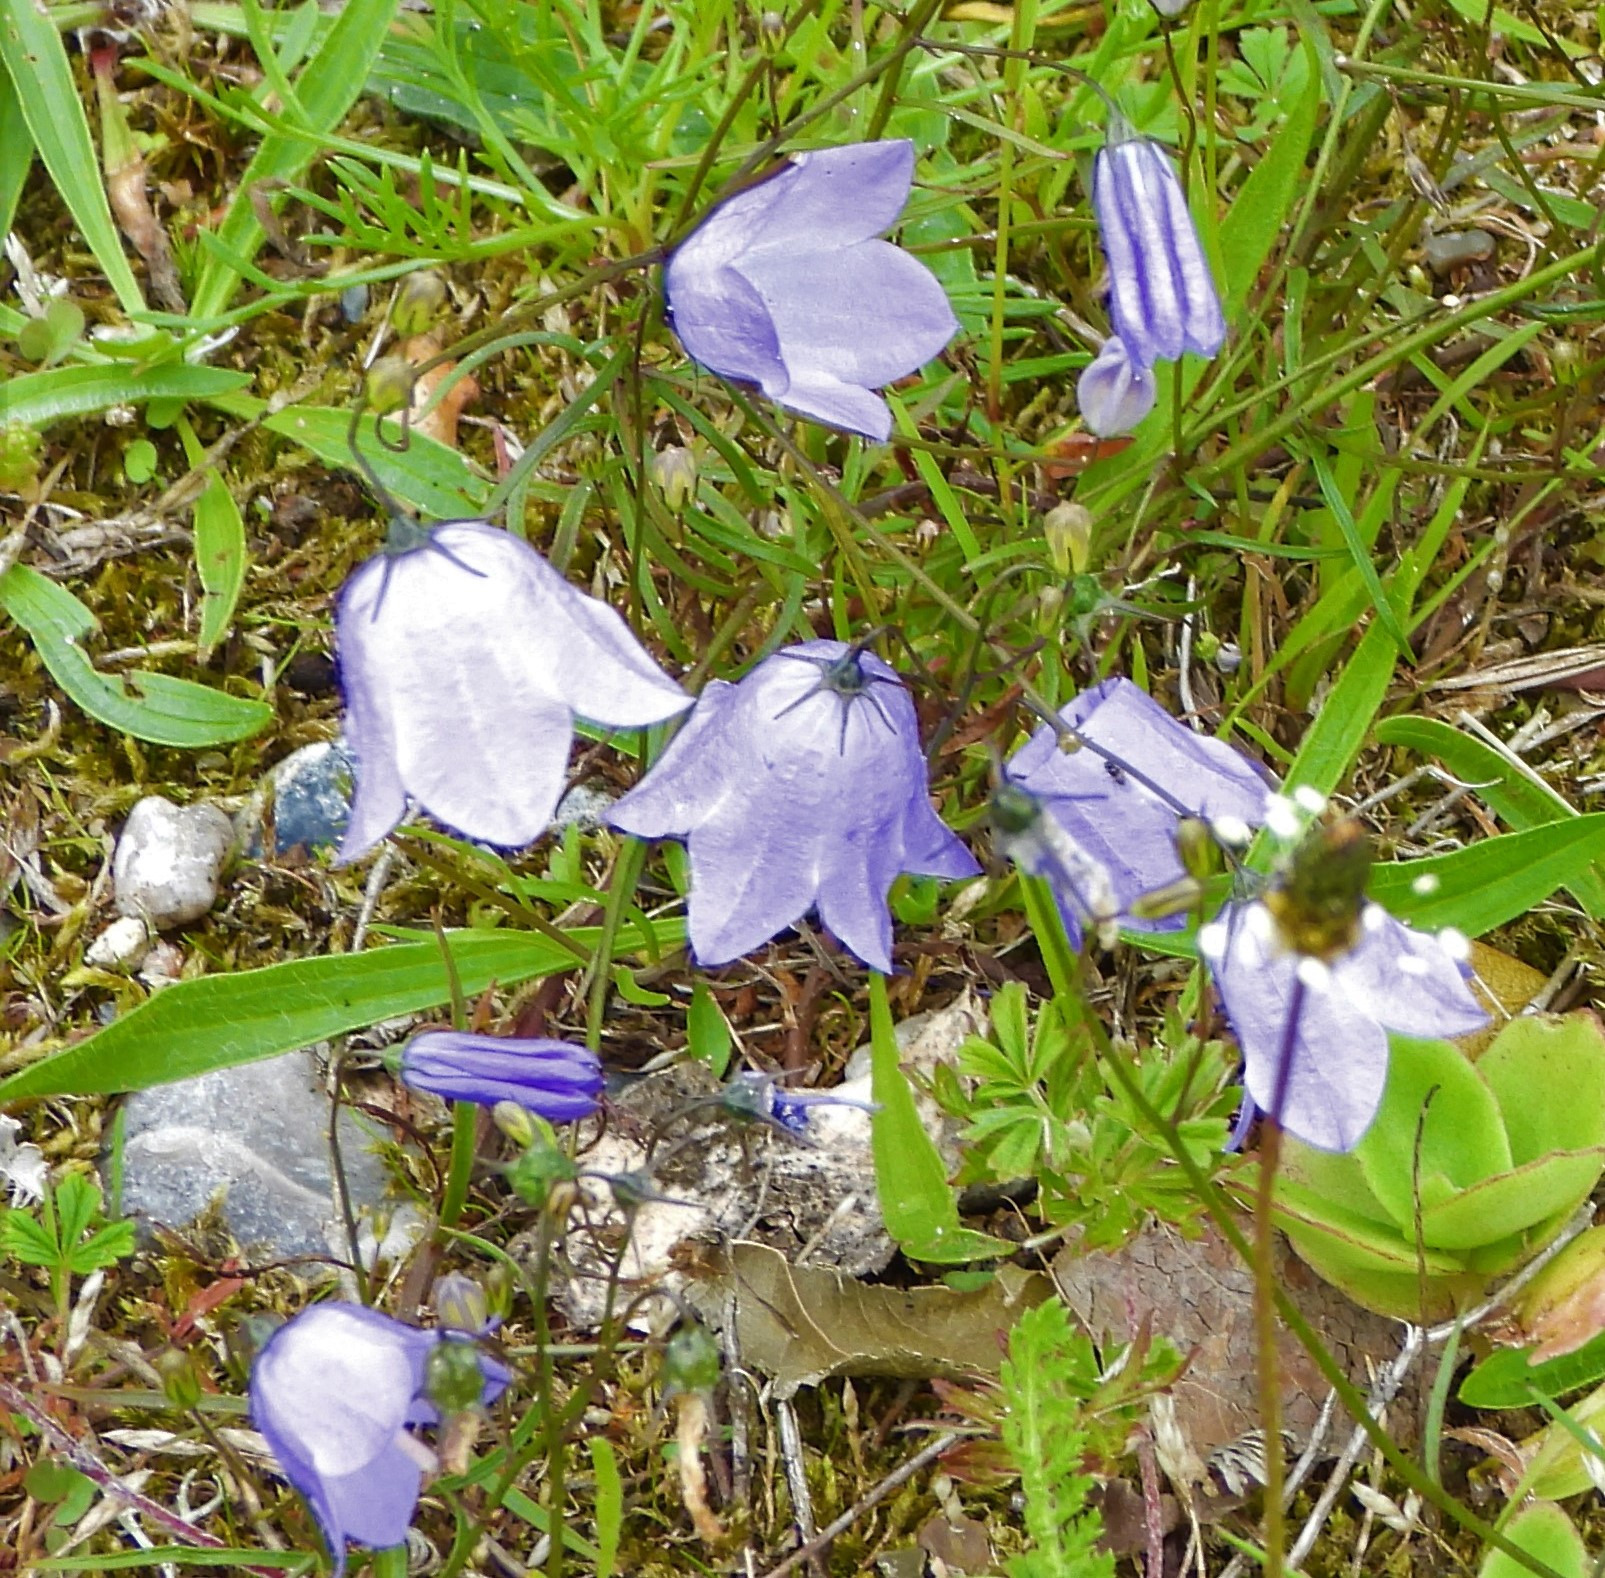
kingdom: Plantae
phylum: Tracheophyta
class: Magnoliopsida
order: Asterales
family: Campanulaceae
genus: Campanula
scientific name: Campanula rotundifolia
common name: Liden klokke
